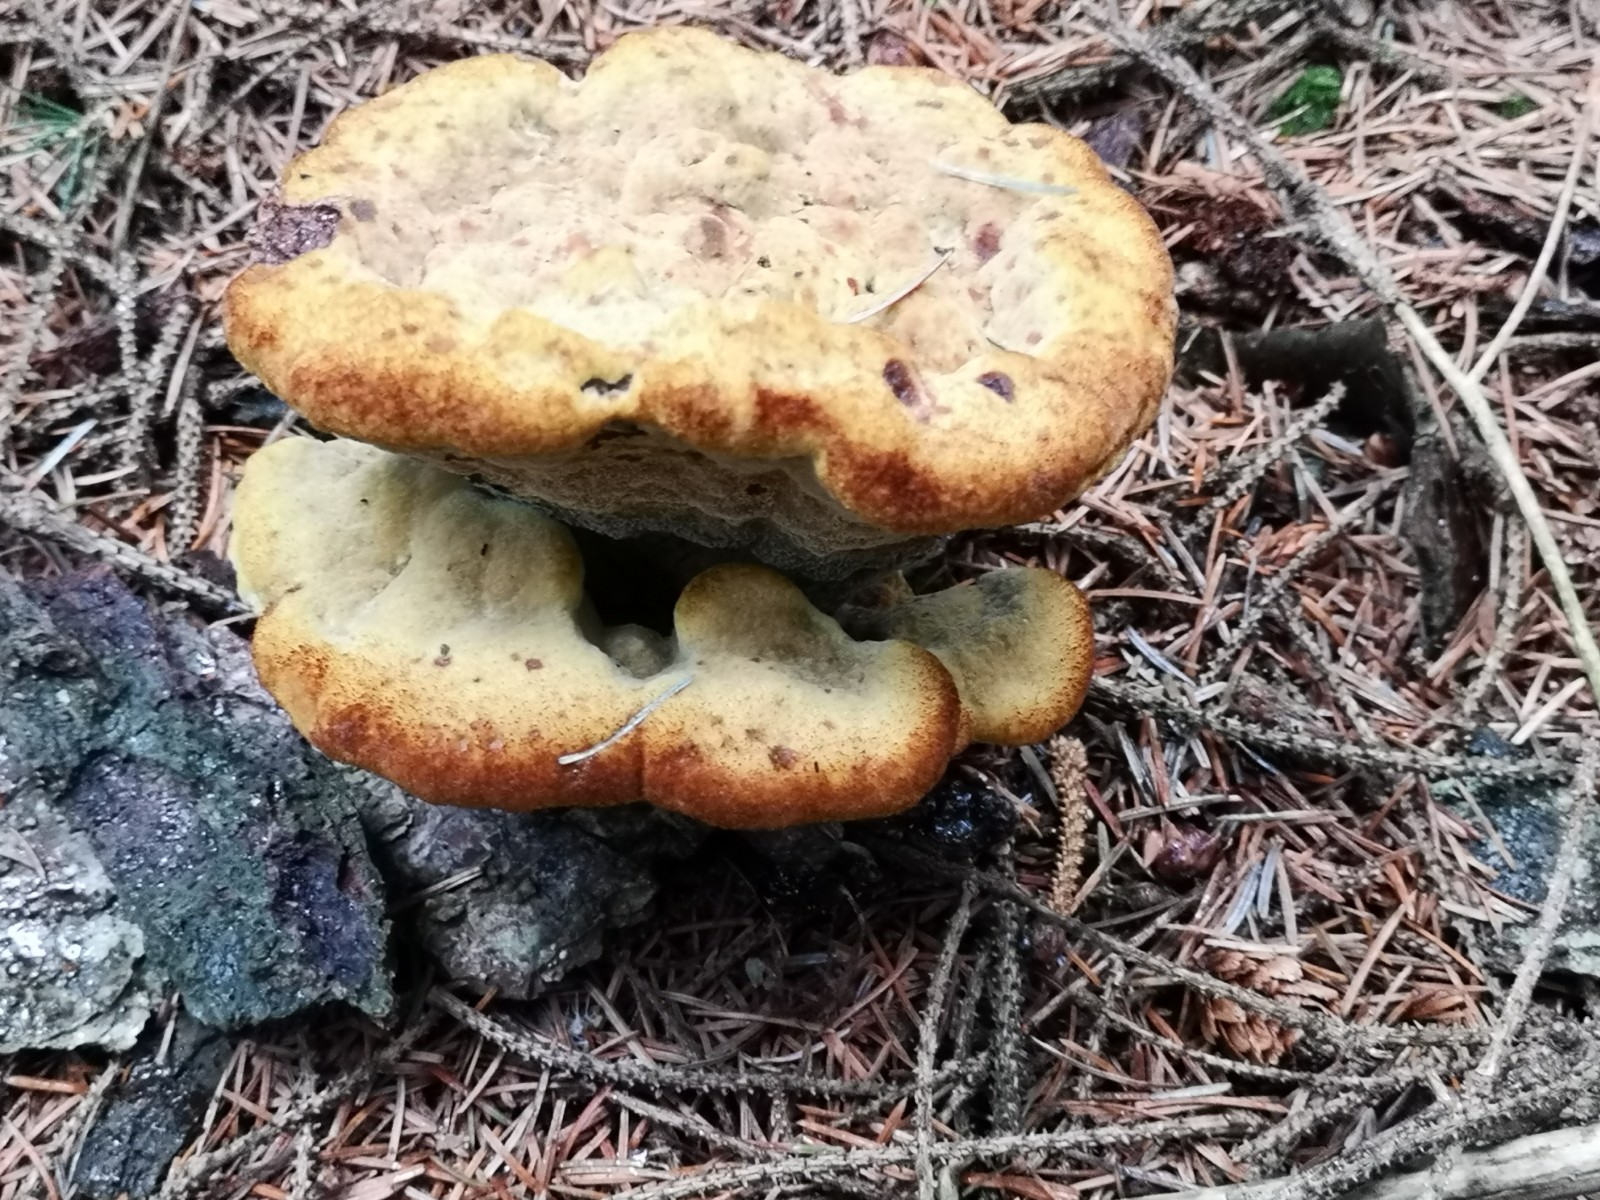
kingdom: Fungi
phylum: Basidiomycota
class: Agaricomycetes
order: Polyporales
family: Laetiporaceae
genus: Phaeolus
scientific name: Phaeolus schweinitzii
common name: brunporesvamp
